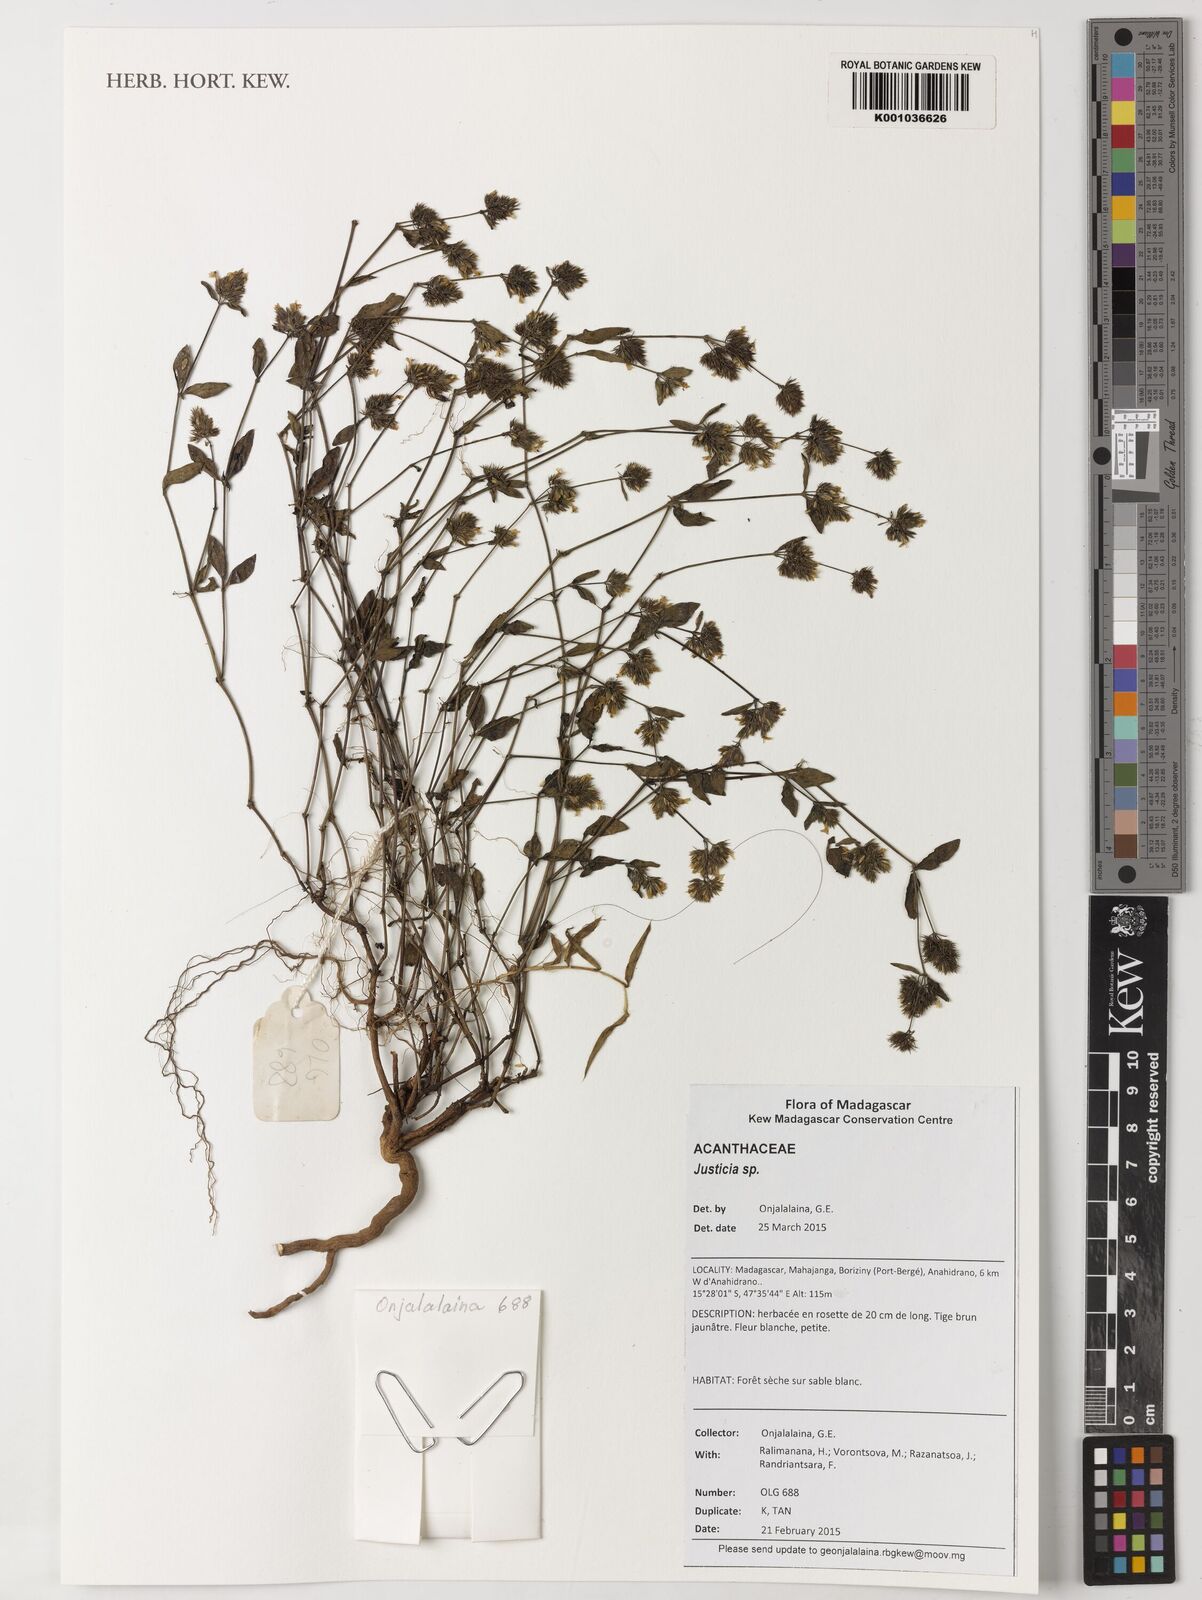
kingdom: Plantae
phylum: Tracheophyta
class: Magnoliopsida
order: Lamiales
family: Acanthaceae
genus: Justicia
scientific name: Justicia
